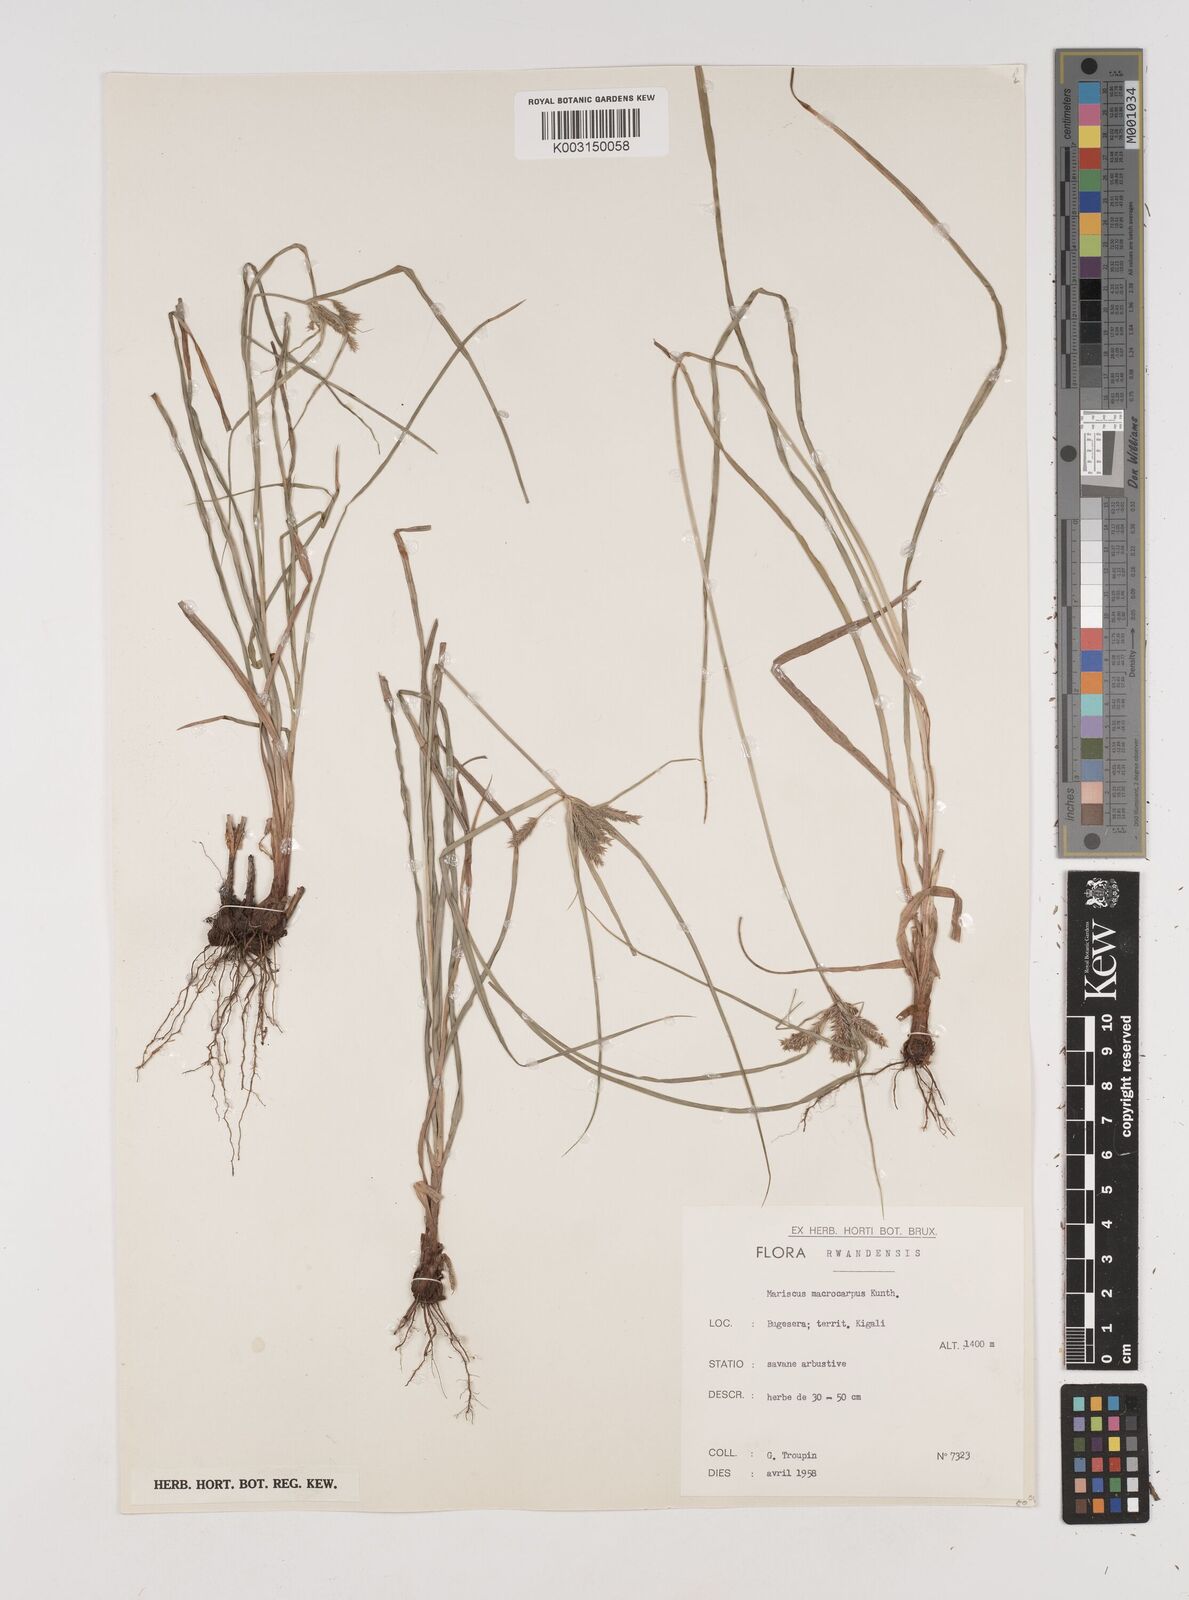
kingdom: Plantae
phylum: Tracheophyta
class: Liliopsida
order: Poales
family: Cyperaceae
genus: Cyperus
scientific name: Cyperus macrocarpus
